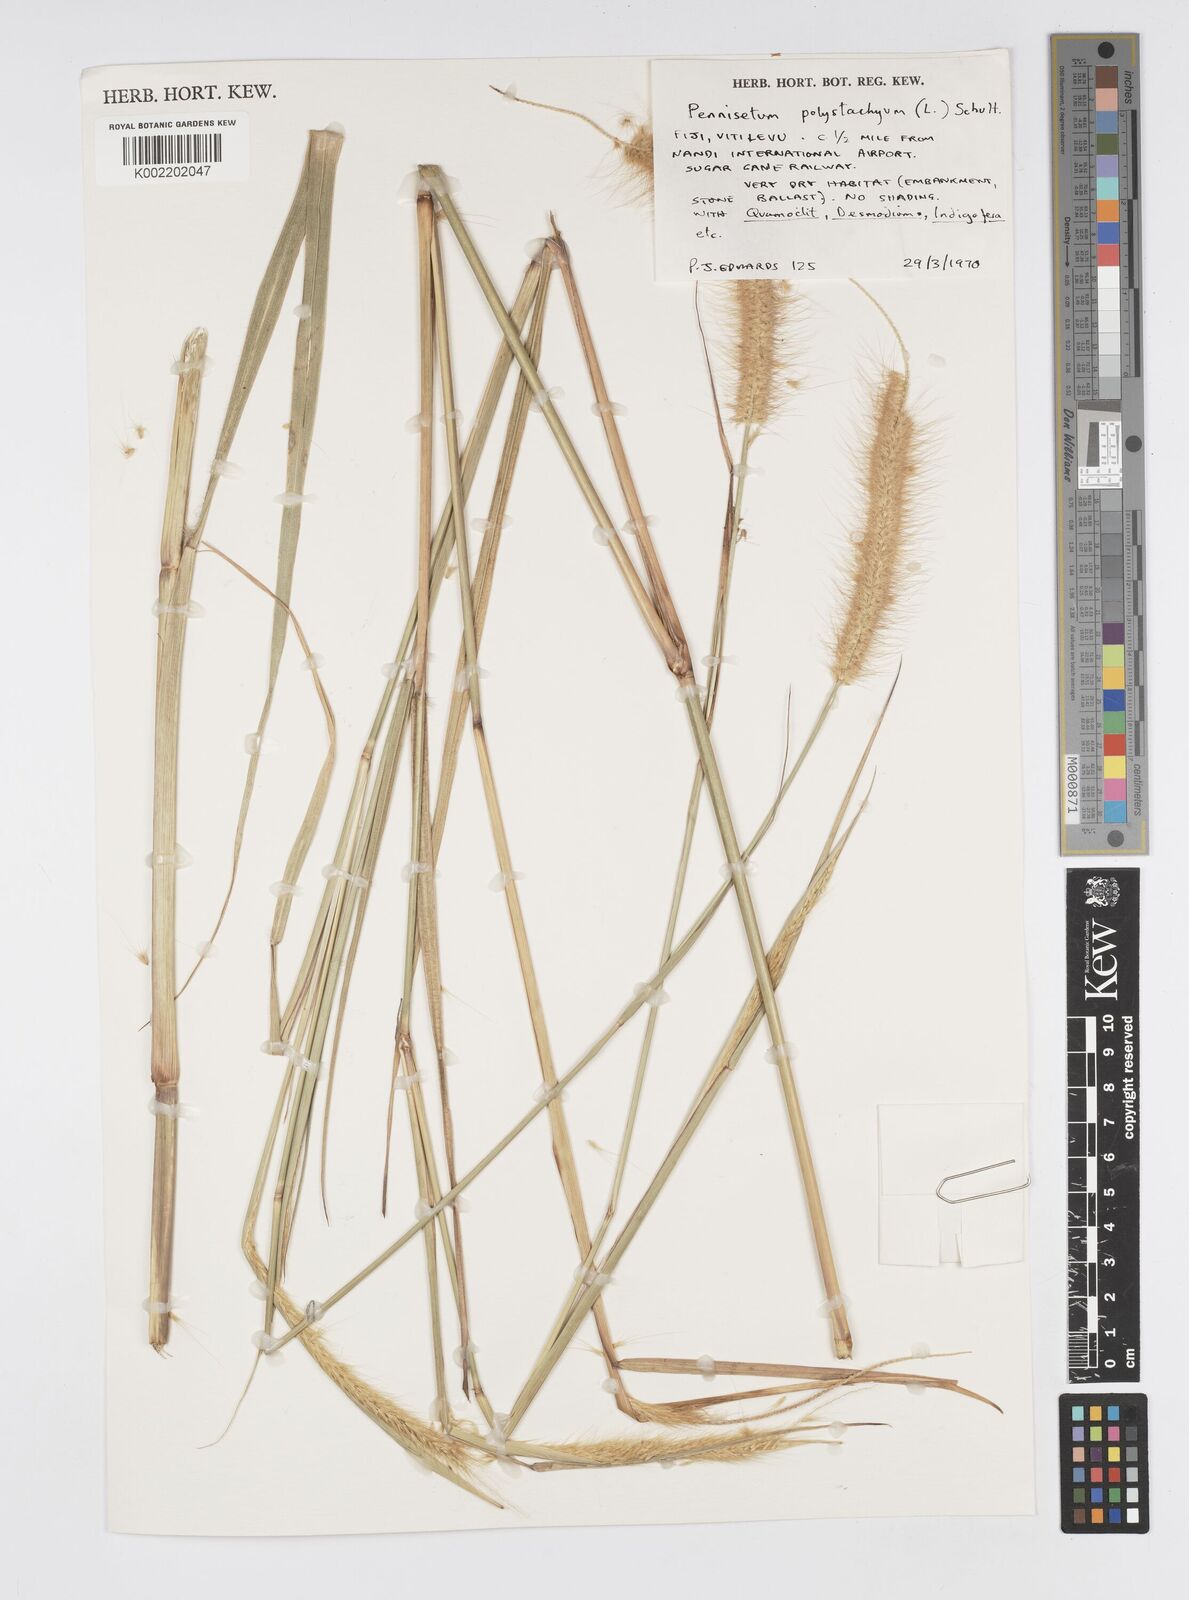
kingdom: Plantae
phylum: Tracheophyta
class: Liliopsida
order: Poales
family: Poaceae
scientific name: Poaceae
